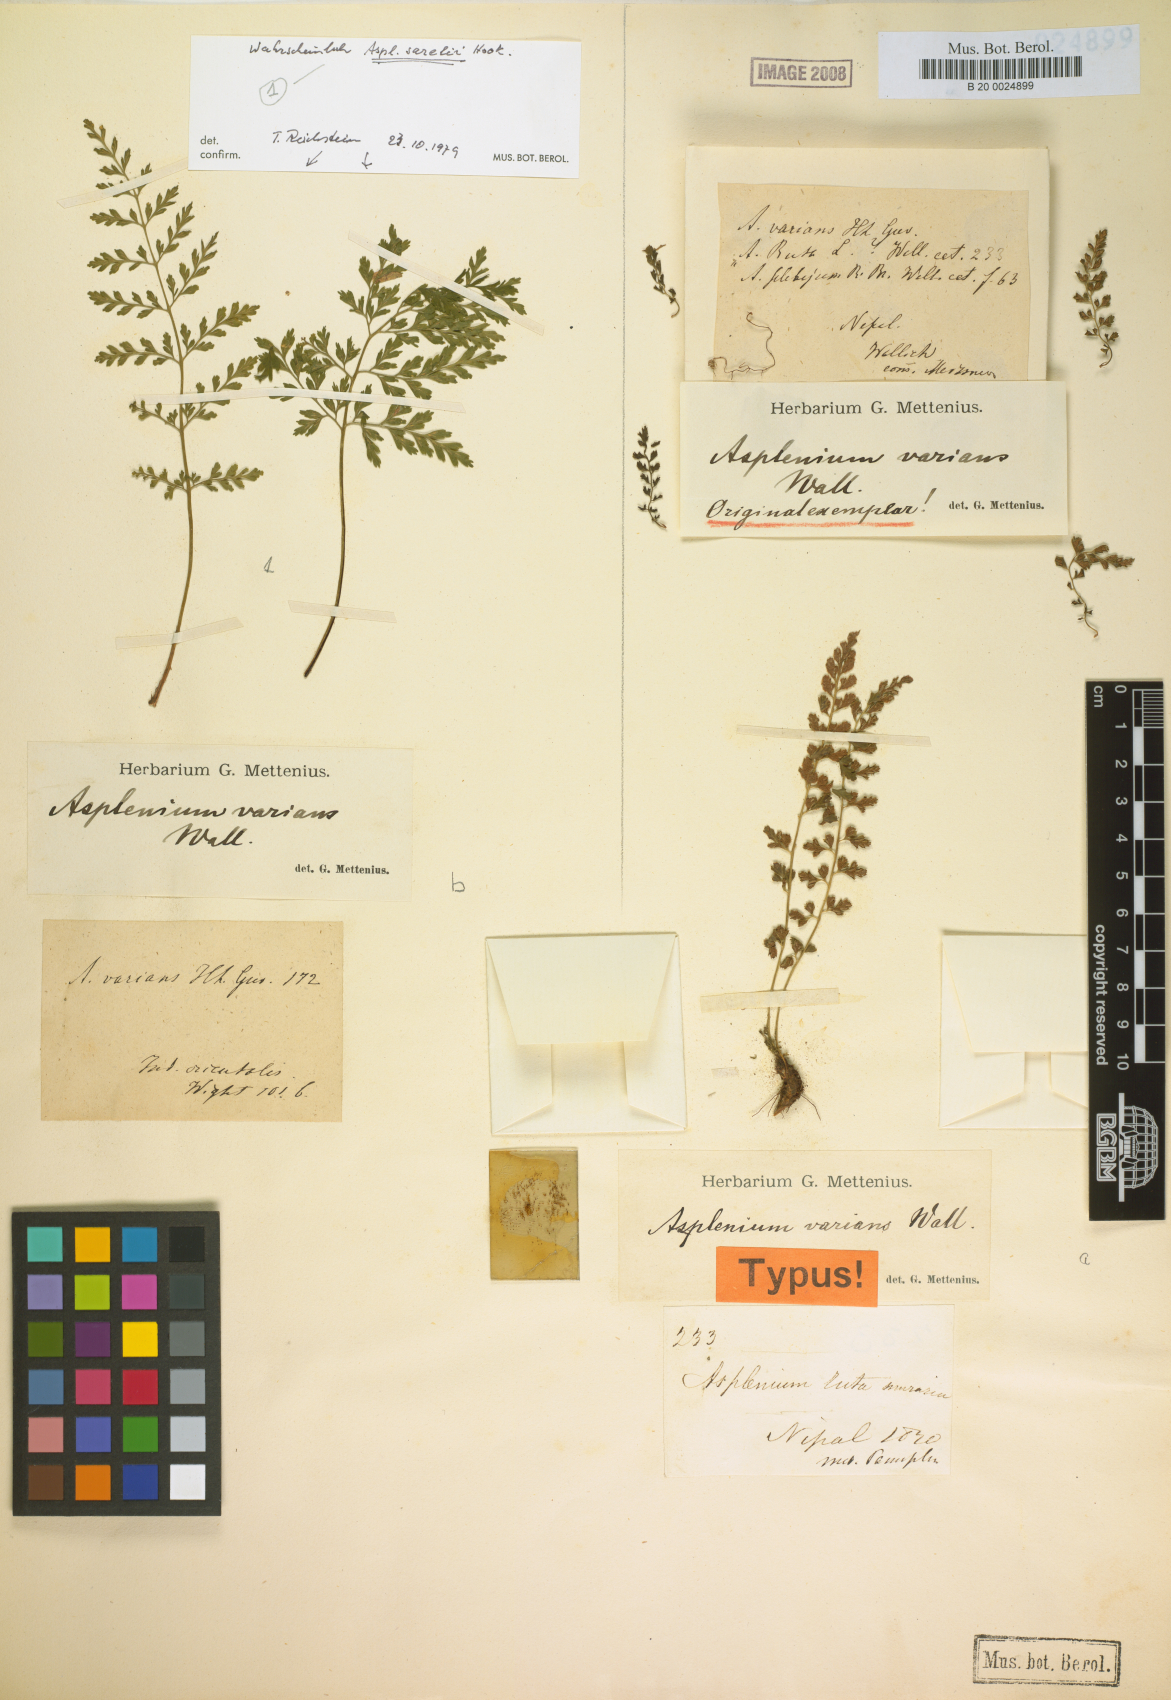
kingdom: Plantae
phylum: Tracheophyta
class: Polypodiopsida
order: Polypodiales
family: Aspleniaceae
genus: Asplenium
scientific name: Asplenium laciniatum
